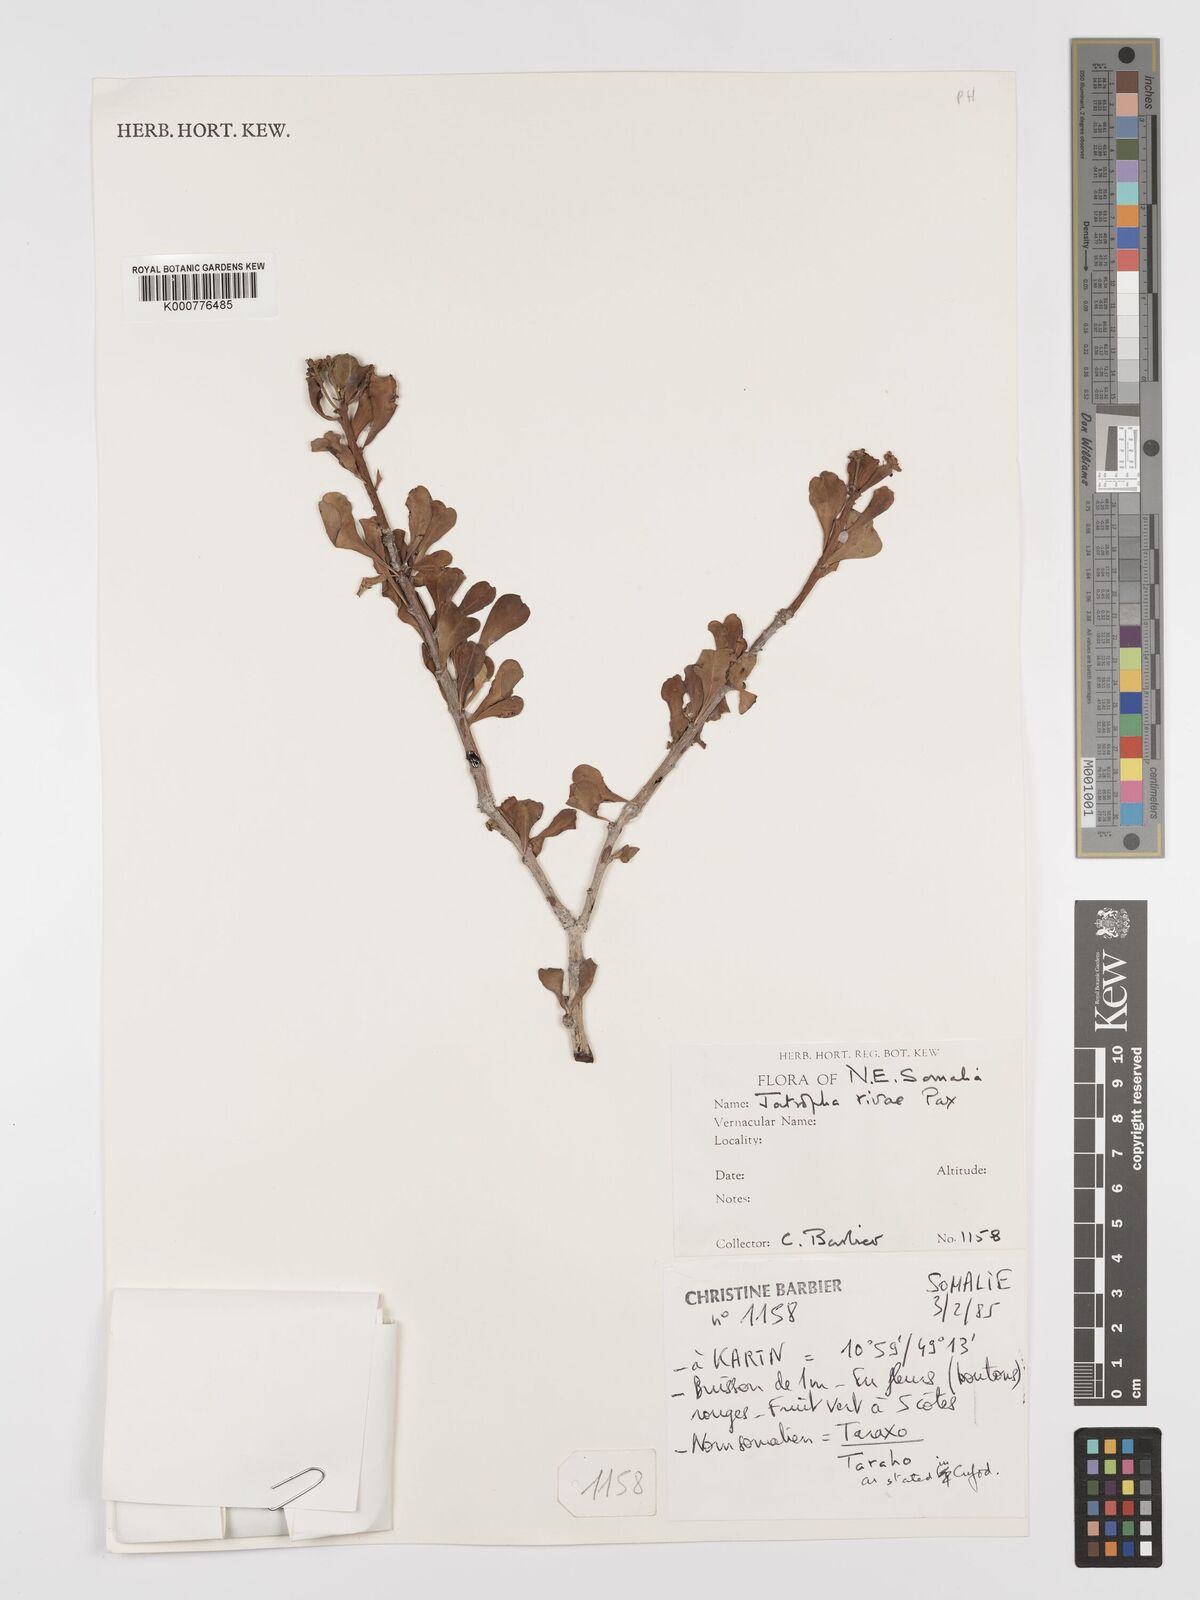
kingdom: Plantae
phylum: Tracheophyta
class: Magnoliopsida
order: Malpighiales
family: Euphorbiaceae
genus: Jatropha
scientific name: Jatropha robecchii
